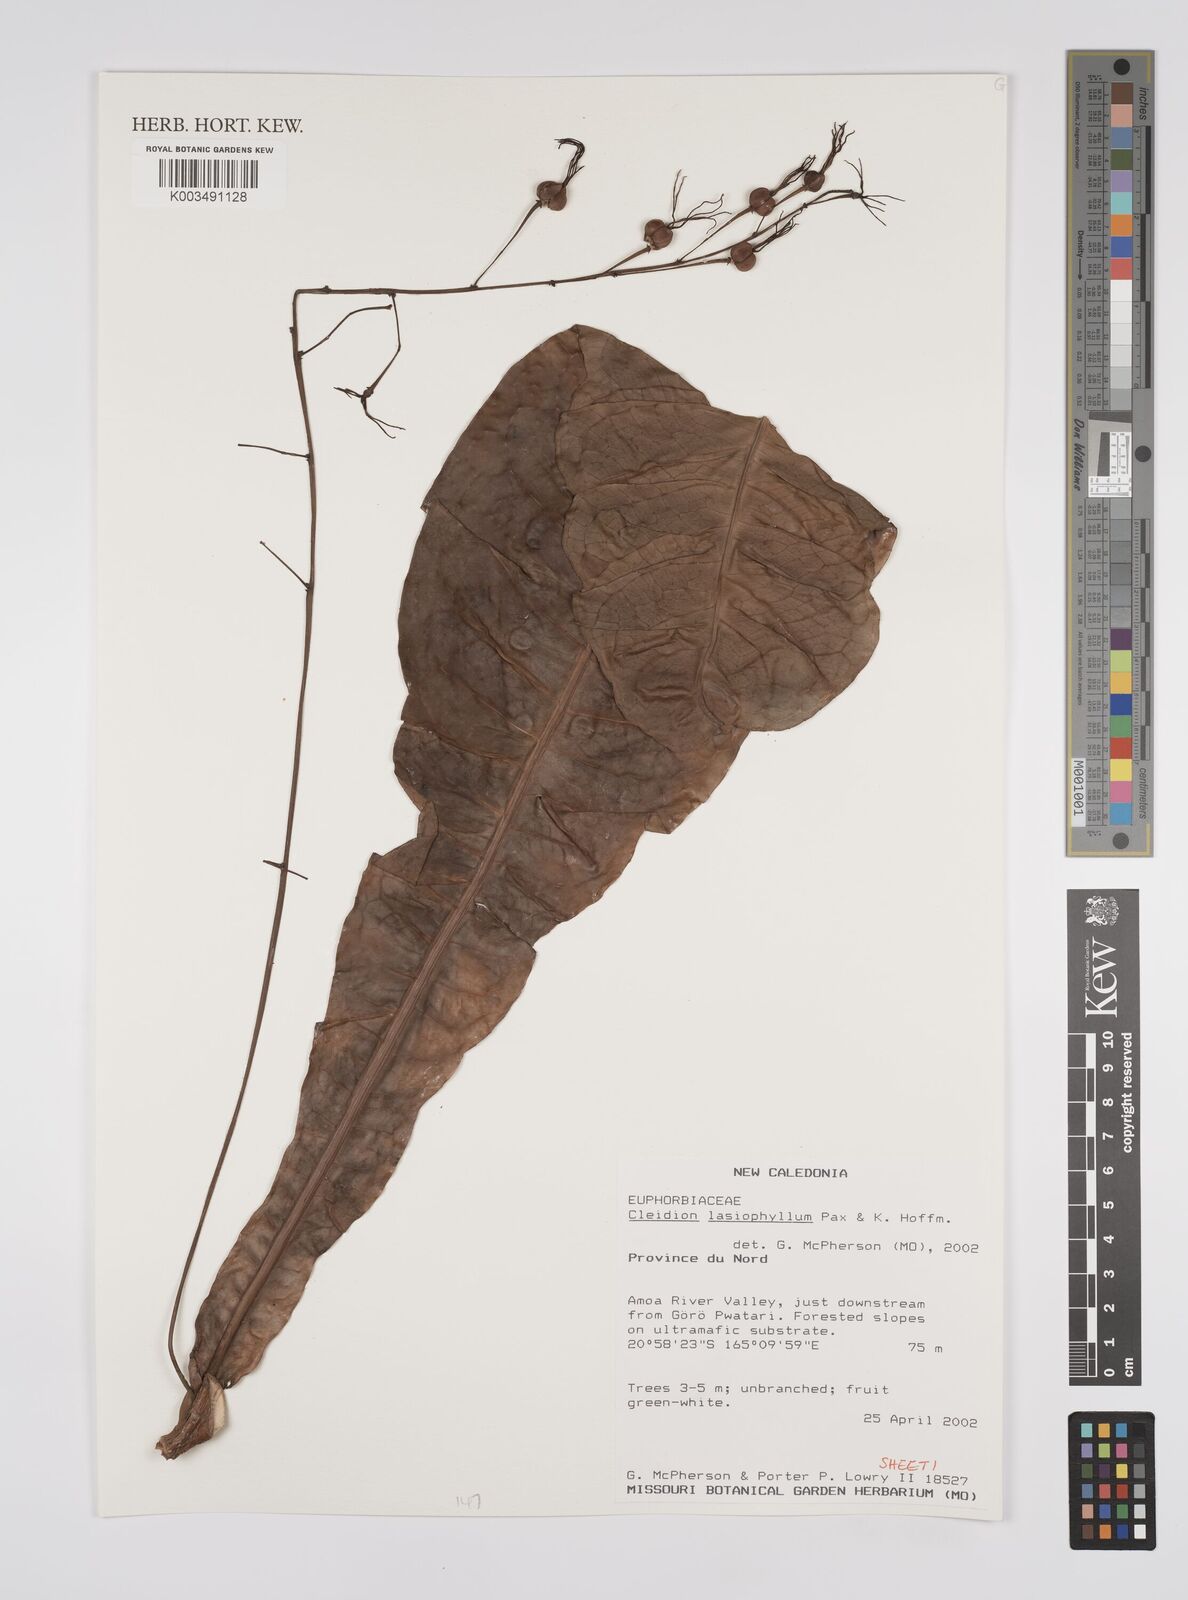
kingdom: Plantae
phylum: Tracheophyta
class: Magnoliopsida
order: Malpighiales
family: Euphorbiaceae
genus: Cleidion
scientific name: Cleidion lasiophyllum
